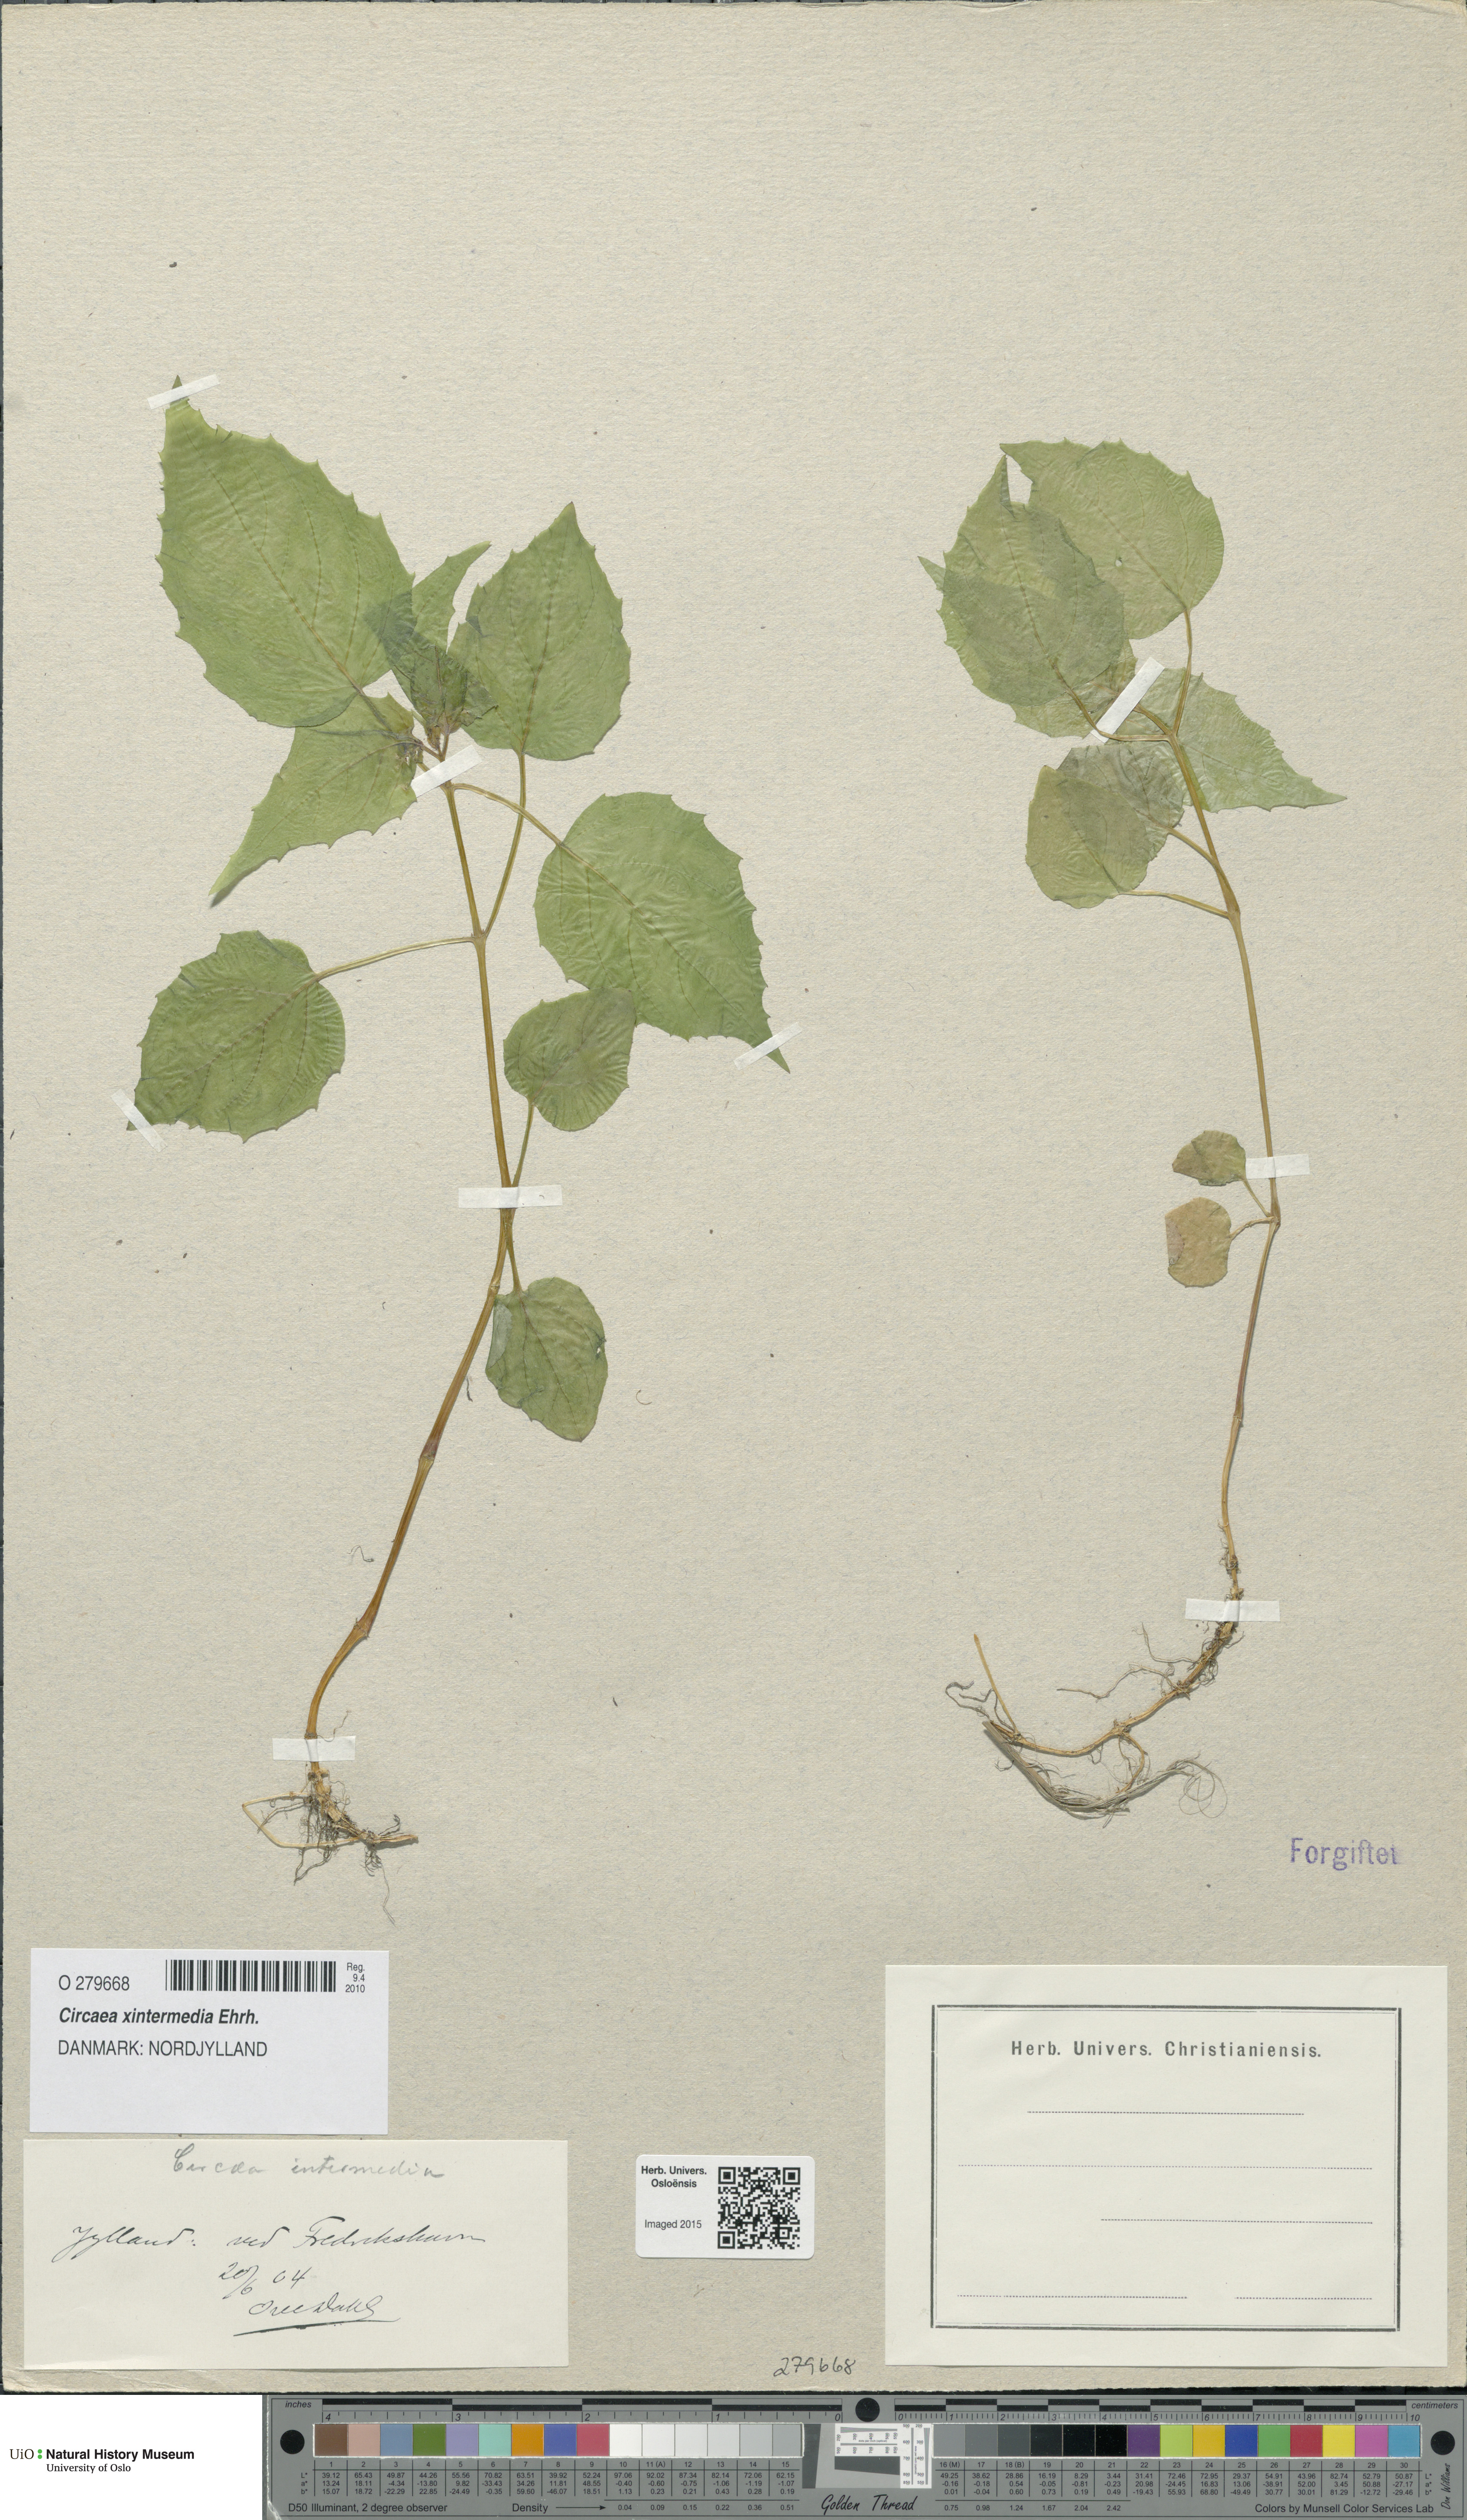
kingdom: Plantae
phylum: Tracheophyta
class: Magnoliopsida
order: Myrtales
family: Onagraceae
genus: Circaea
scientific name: Circaea intermedia
